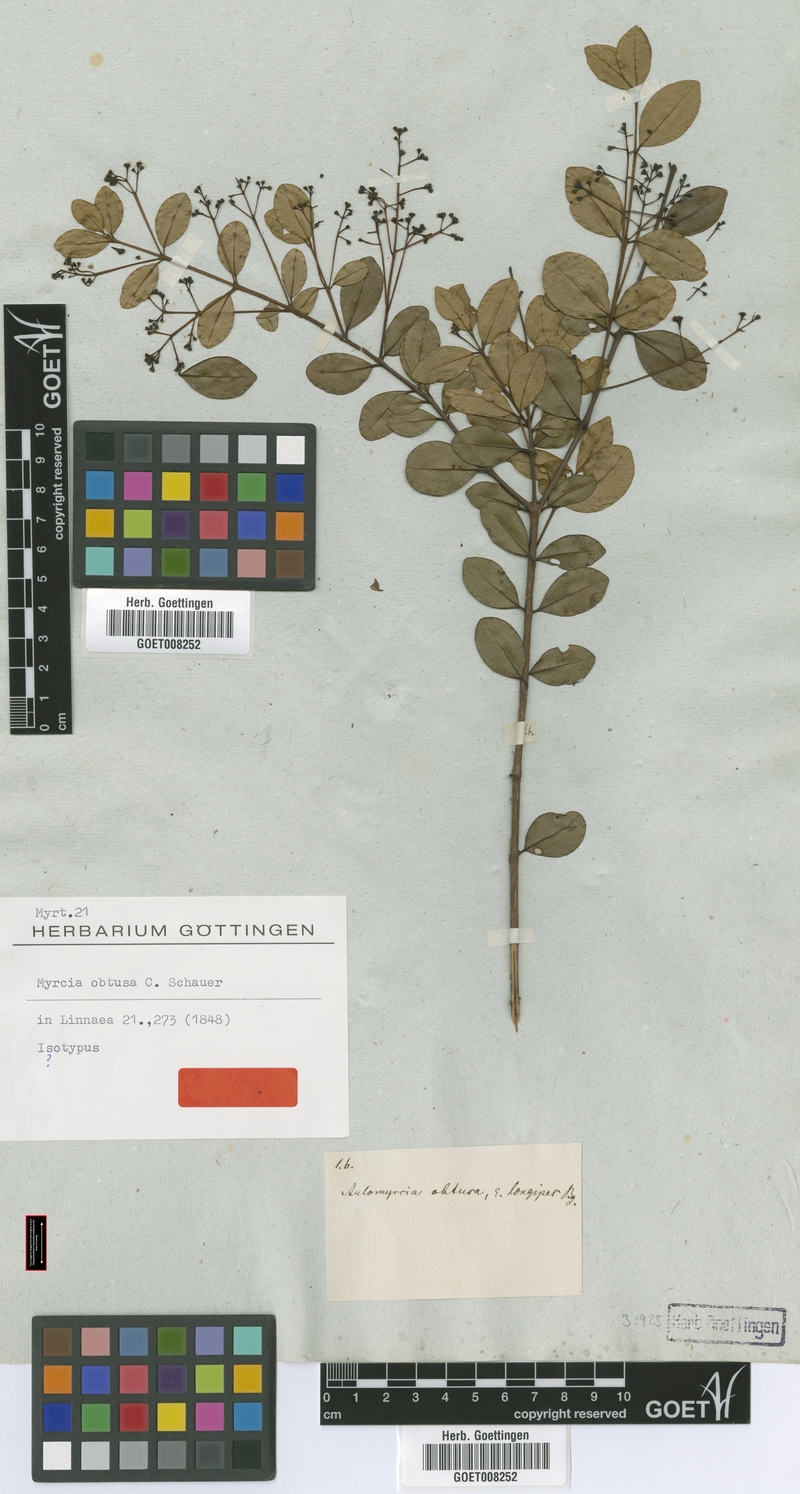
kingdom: Plantae
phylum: Tracheophyta
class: Magnoliopsida
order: Myrtales
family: Myrtaceae
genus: Myrcia
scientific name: Myrcia guianensis
